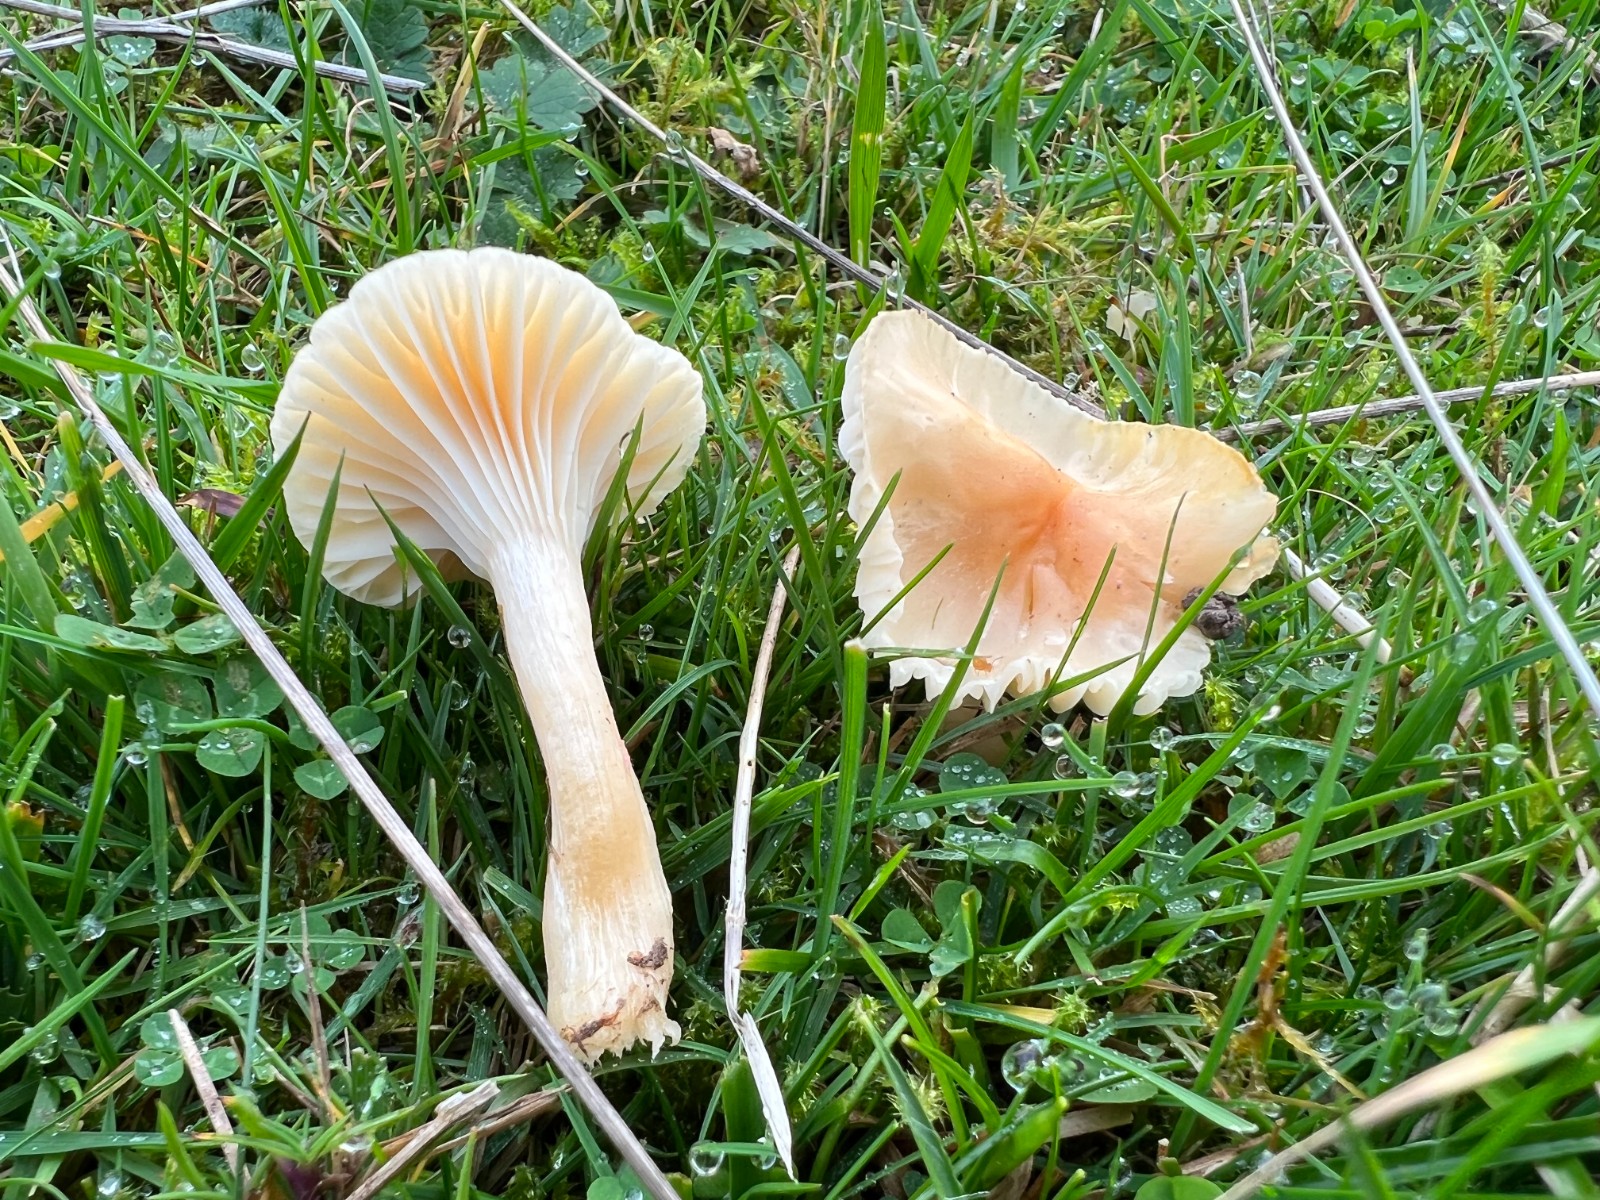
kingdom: Fungi
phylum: Basidiomycota
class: Agaricomycetes
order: Agaricales
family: Hygrophoraceae
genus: Cuphophyllus
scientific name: Cuphophyllus pratensis
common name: eng-vokshat
